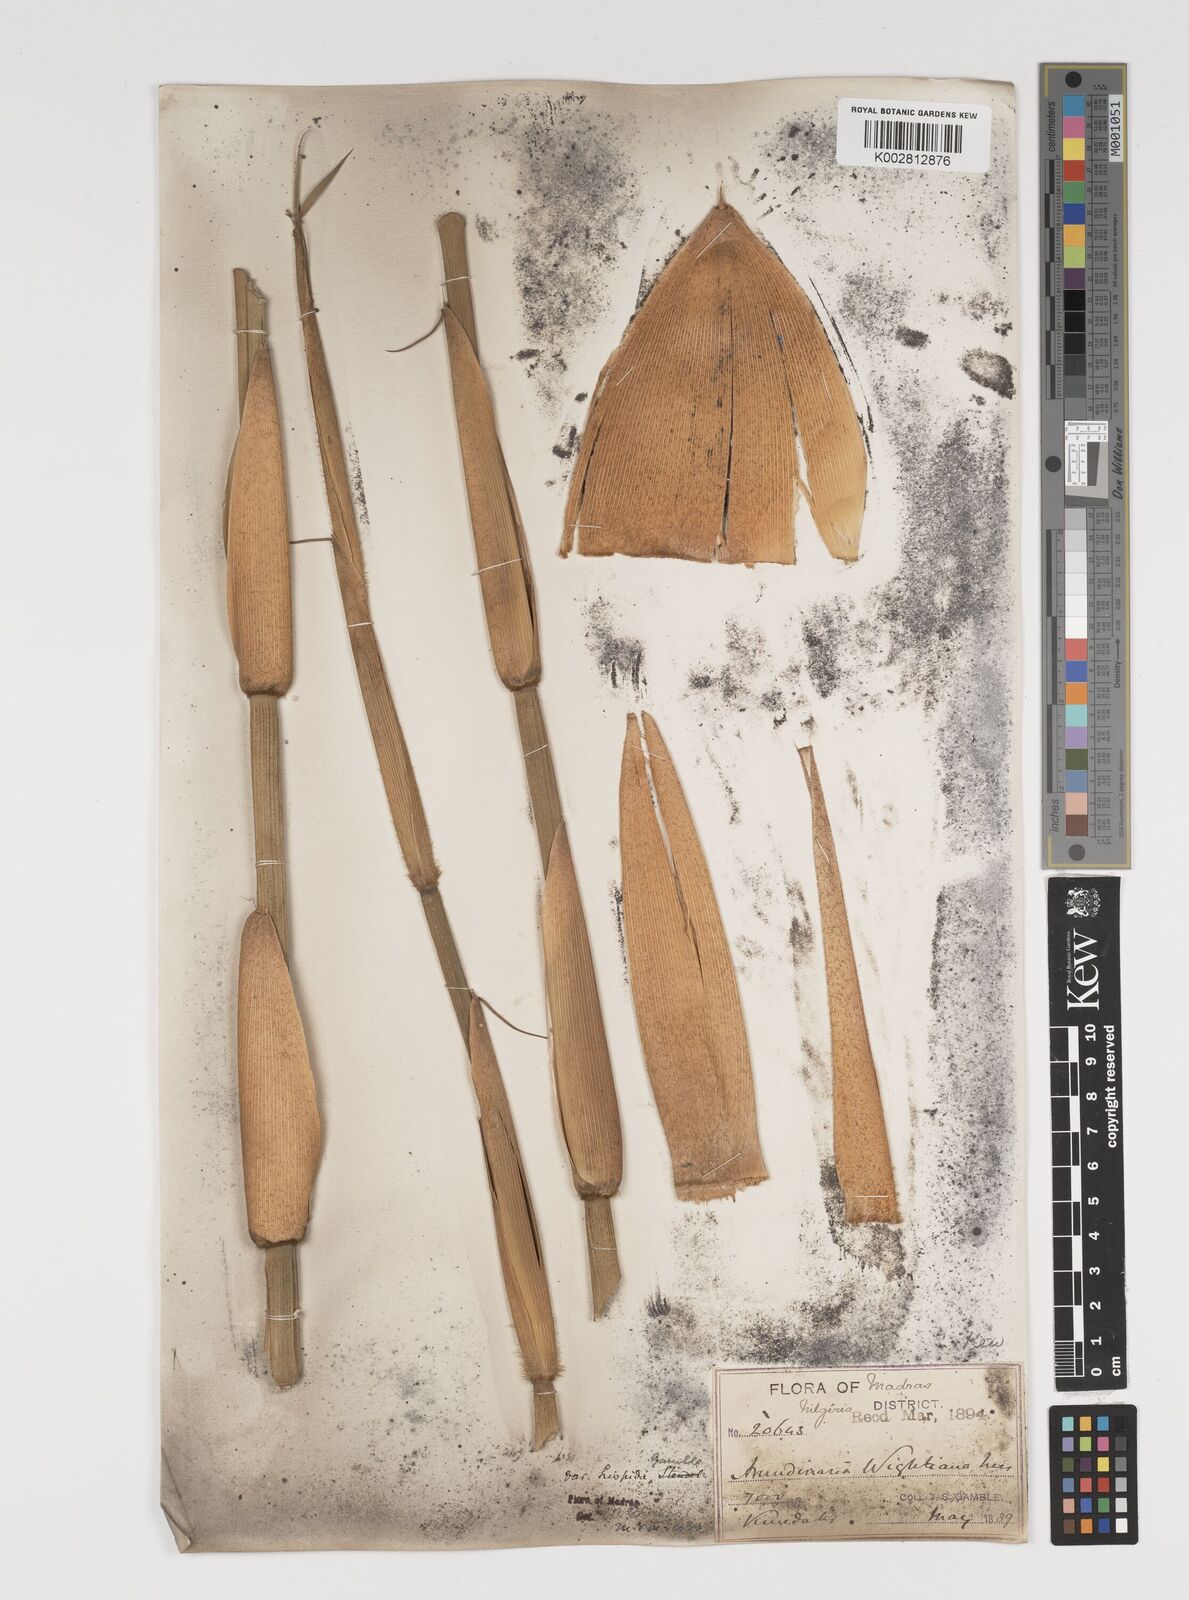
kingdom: Plantae
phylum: Tracheophyta
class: Liliopsida
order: Poales
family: Poaceae
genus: Kuruna
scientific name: Kuruna wightiana
